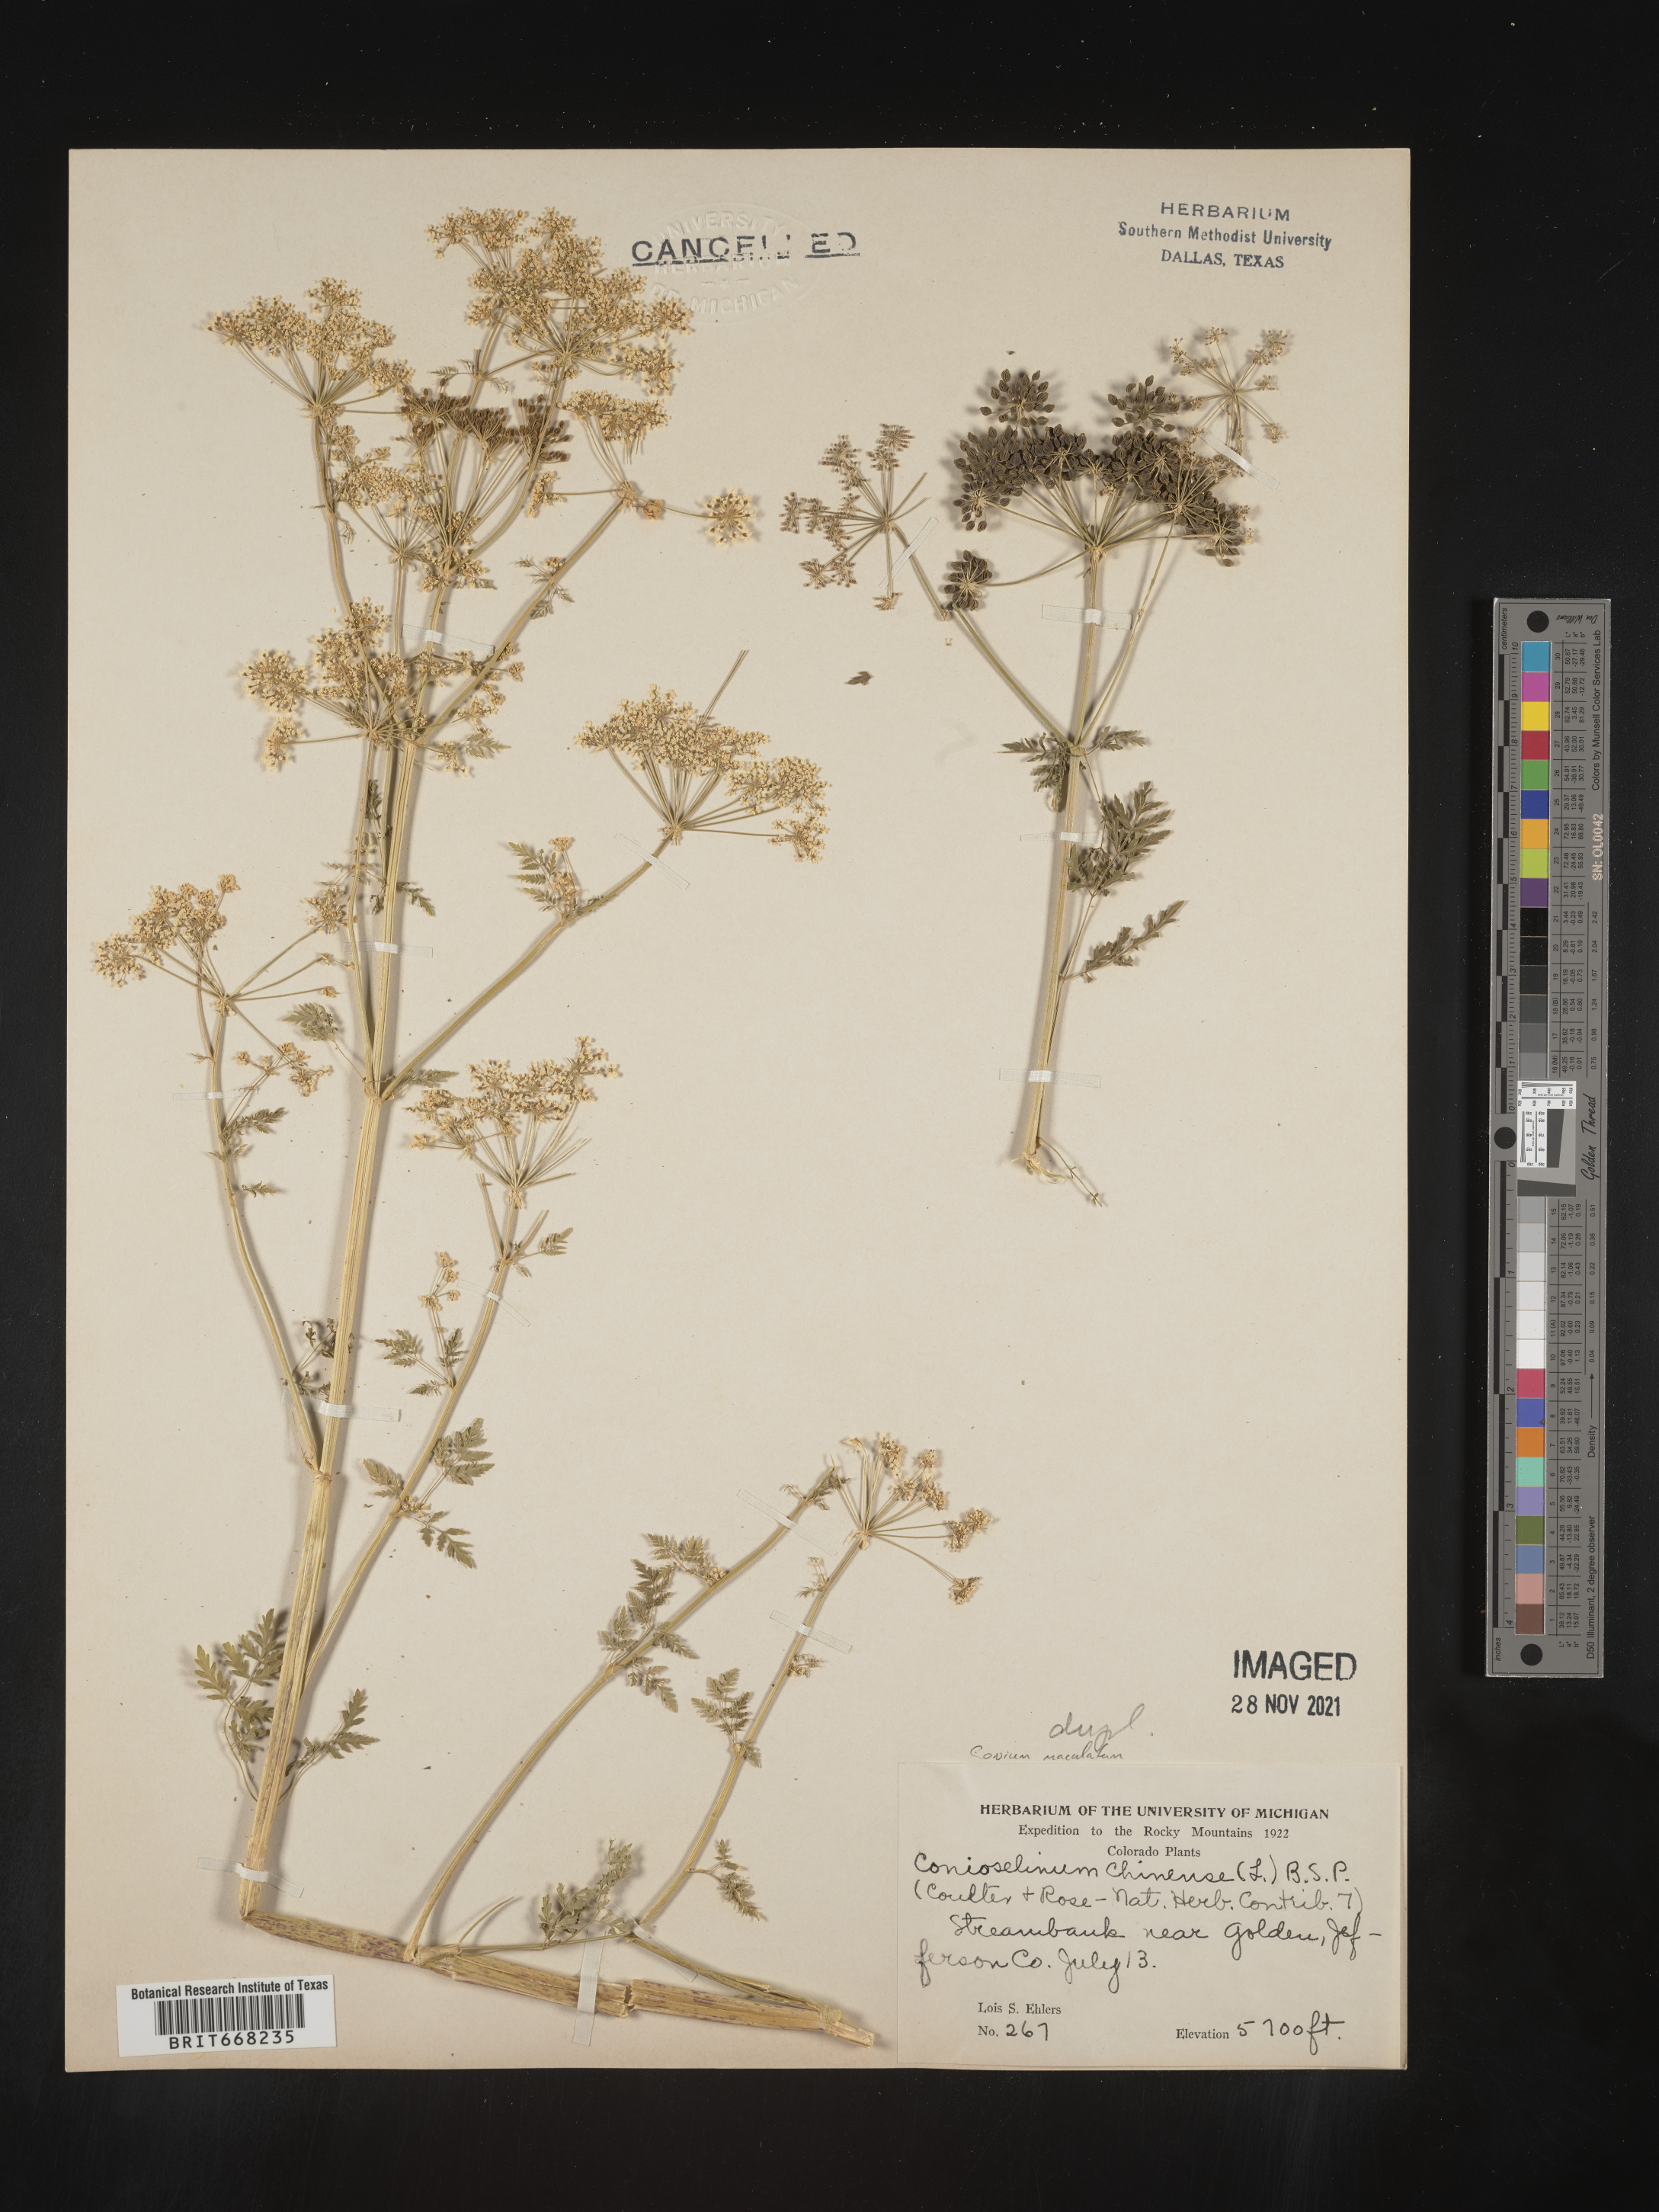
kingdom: Plantae
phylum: Tracheophyta
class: Magnoliopsida
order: Apiales
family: Apiaceae
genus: Conium
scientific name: Conium maculatum
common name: Hemlock
